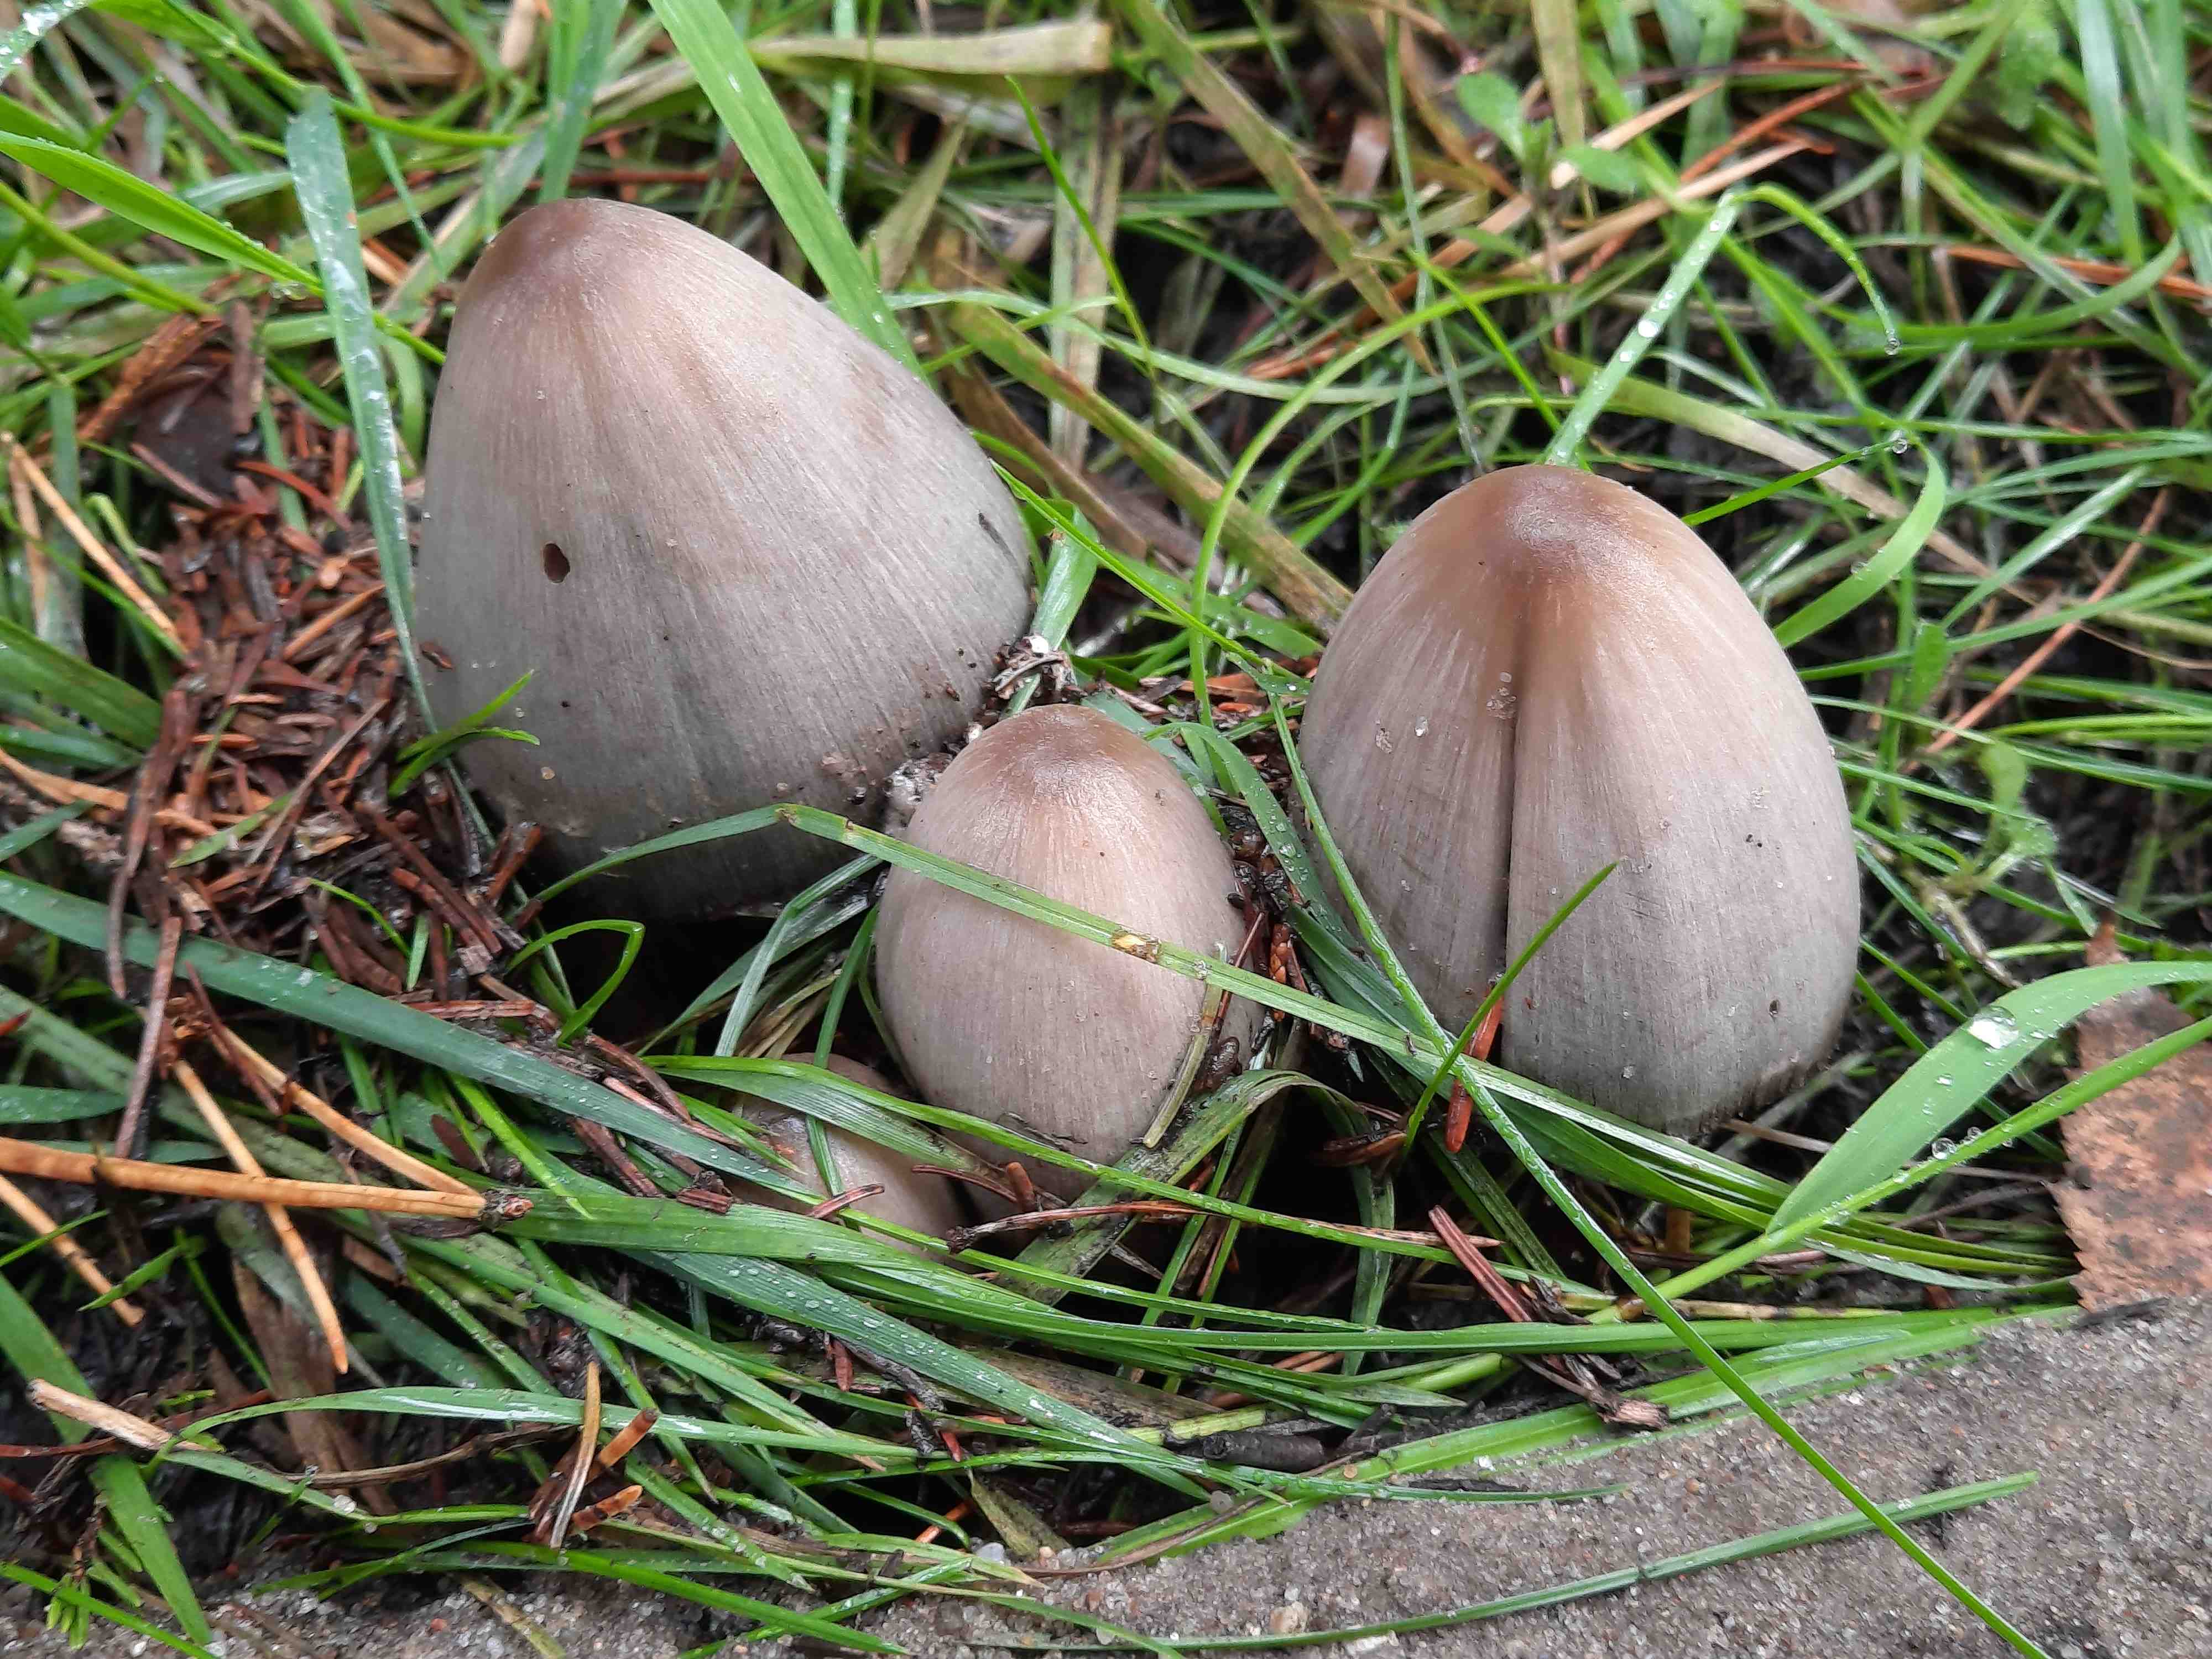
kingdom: Fungi
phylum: Basidiomycota
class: Agaricomycetes
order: Agaricales
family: Psathyrellaceae
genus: Coprinopsis
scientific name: Coprinopsis atramentaria
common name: almindelig blækhat
